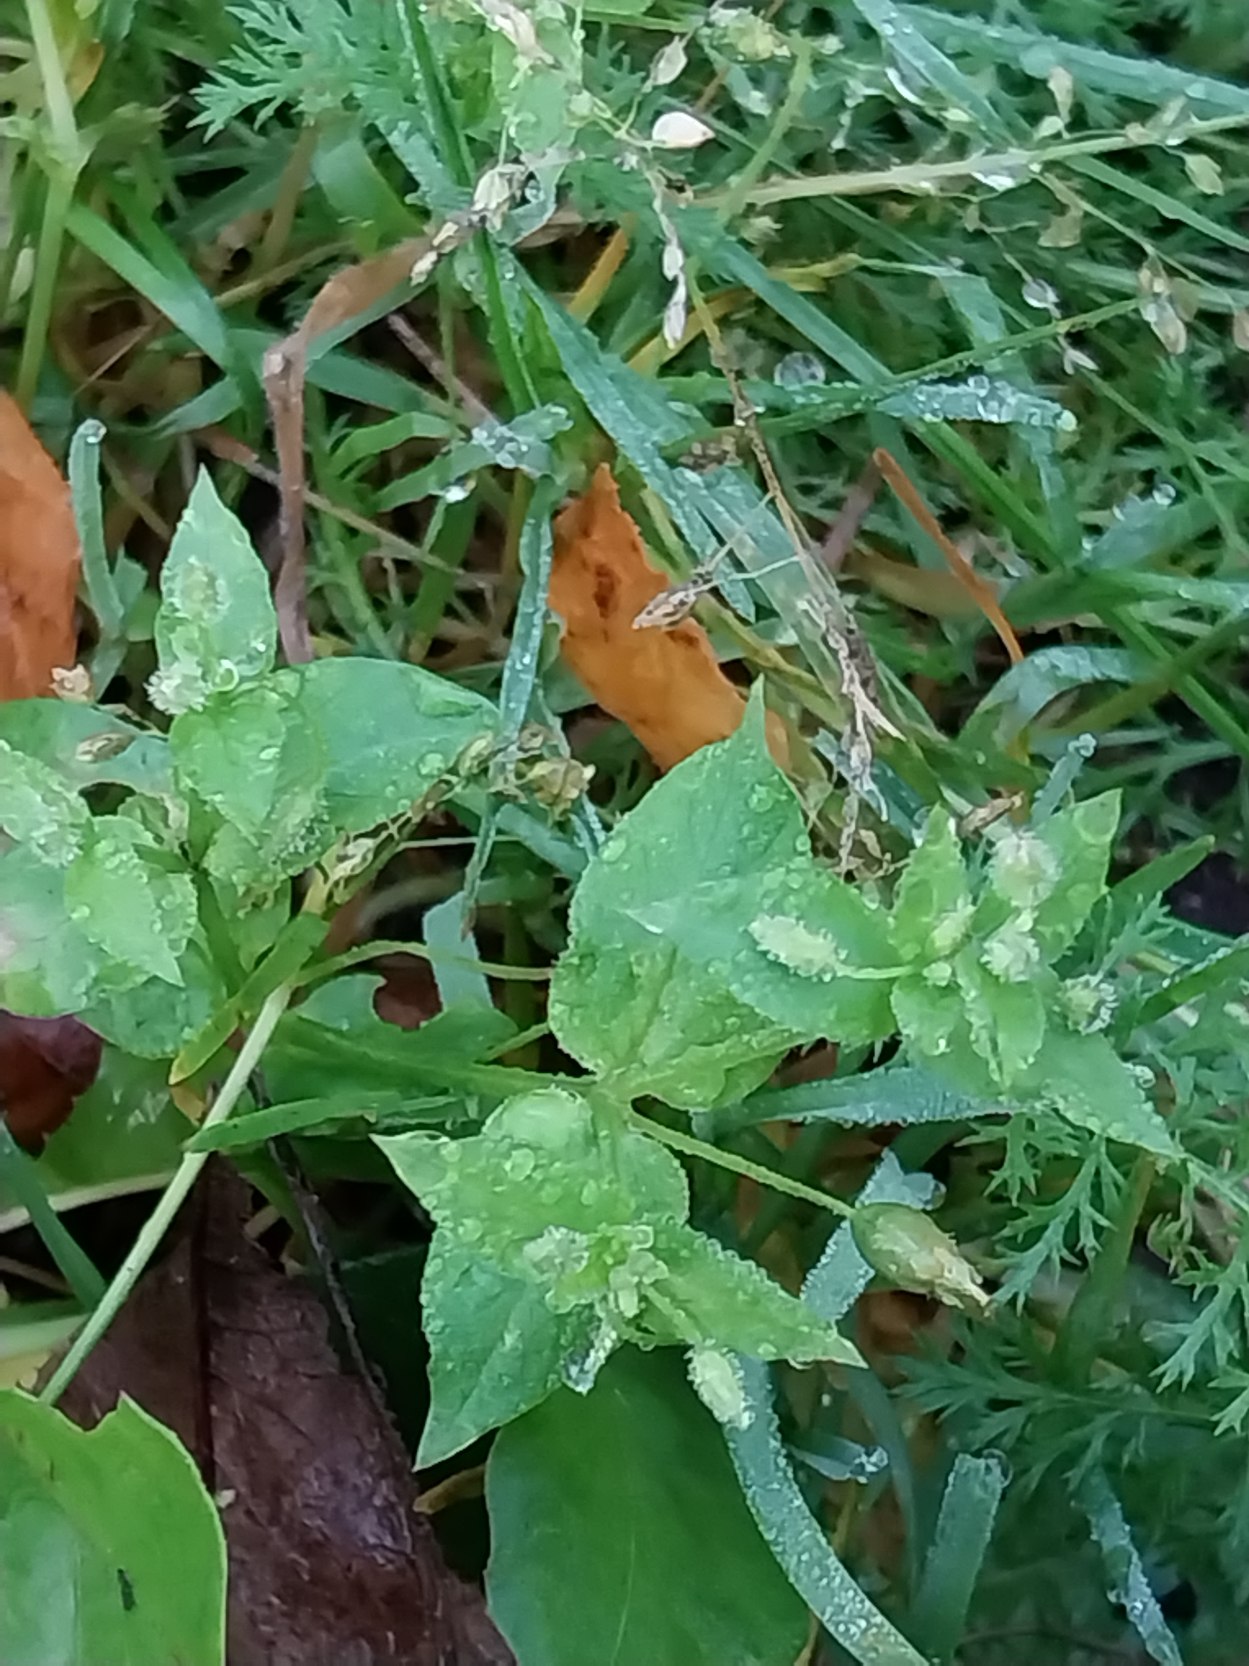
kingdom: Plantae
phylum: Tracheophyta
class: Magnoliopsida
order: Caryophyllales
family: Caryophyllaceae
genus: Stellaria
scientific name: Stellaria media
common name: Almindelig fuglegræs
